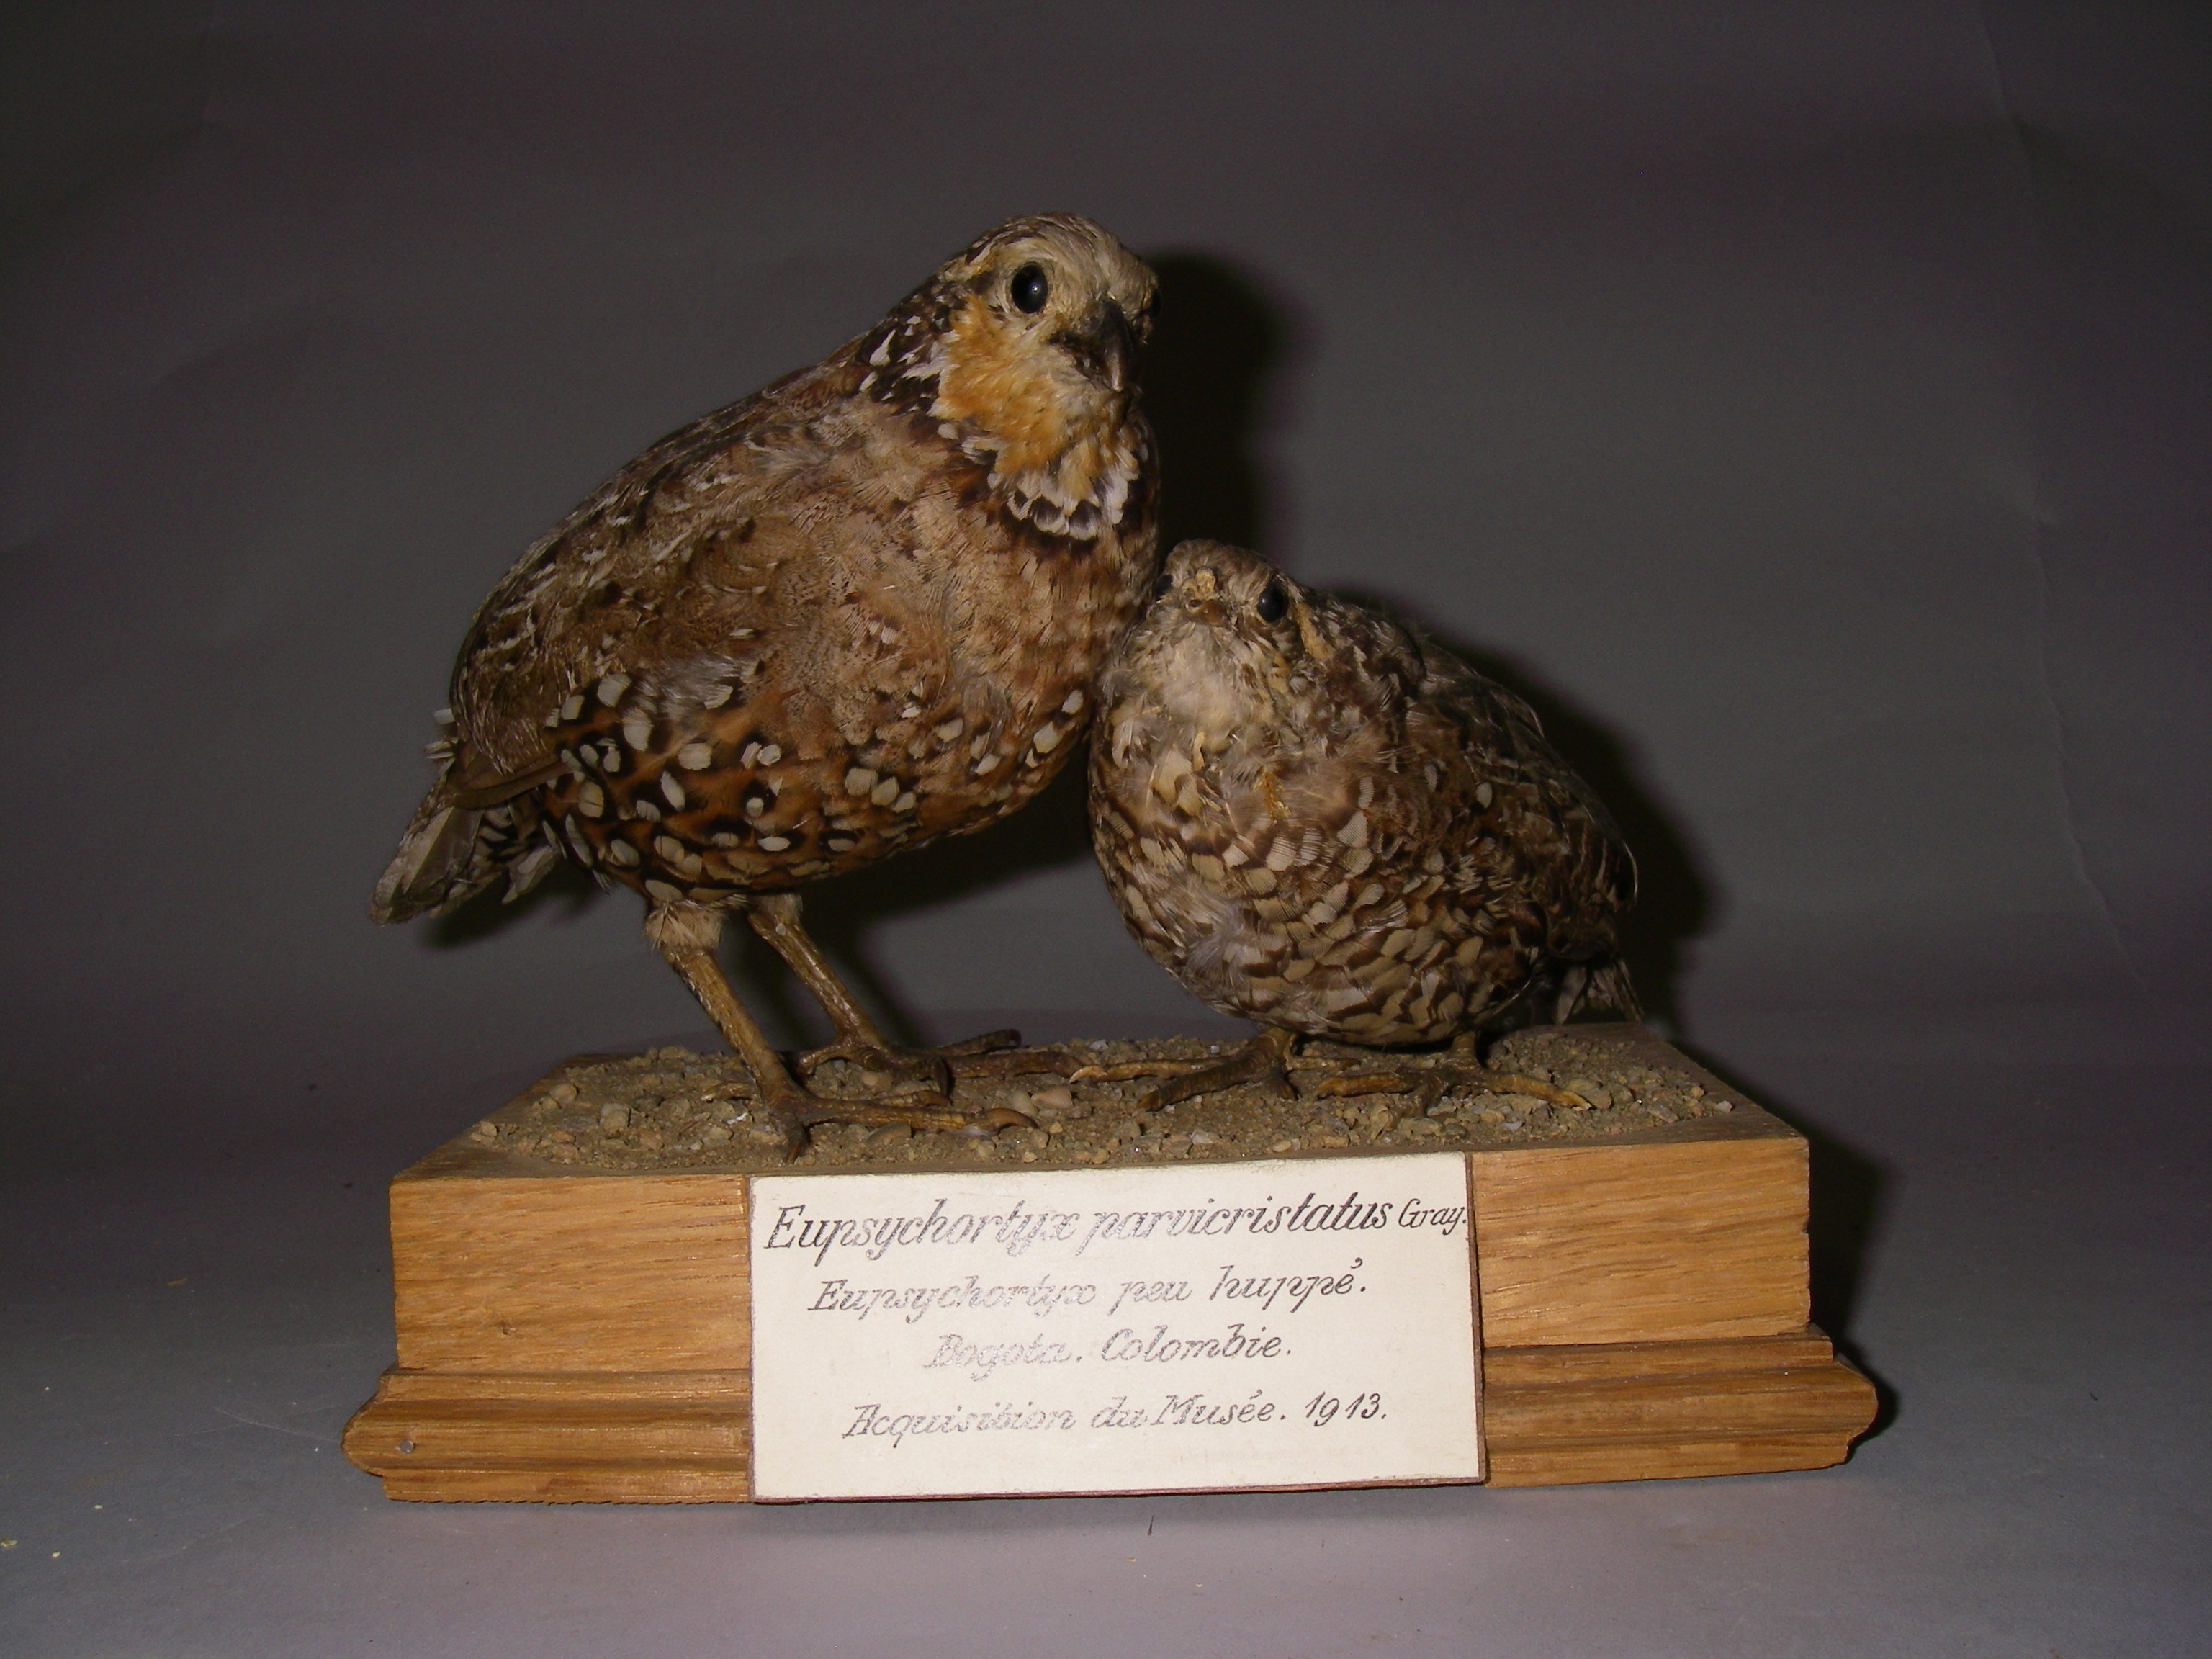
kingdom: Animalia
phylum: Chordata
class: Aves
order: Galliformes
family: Odontophoridae
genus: Colinus
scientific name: Colinus leucopogon
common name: Spot-bellied bobwhite
